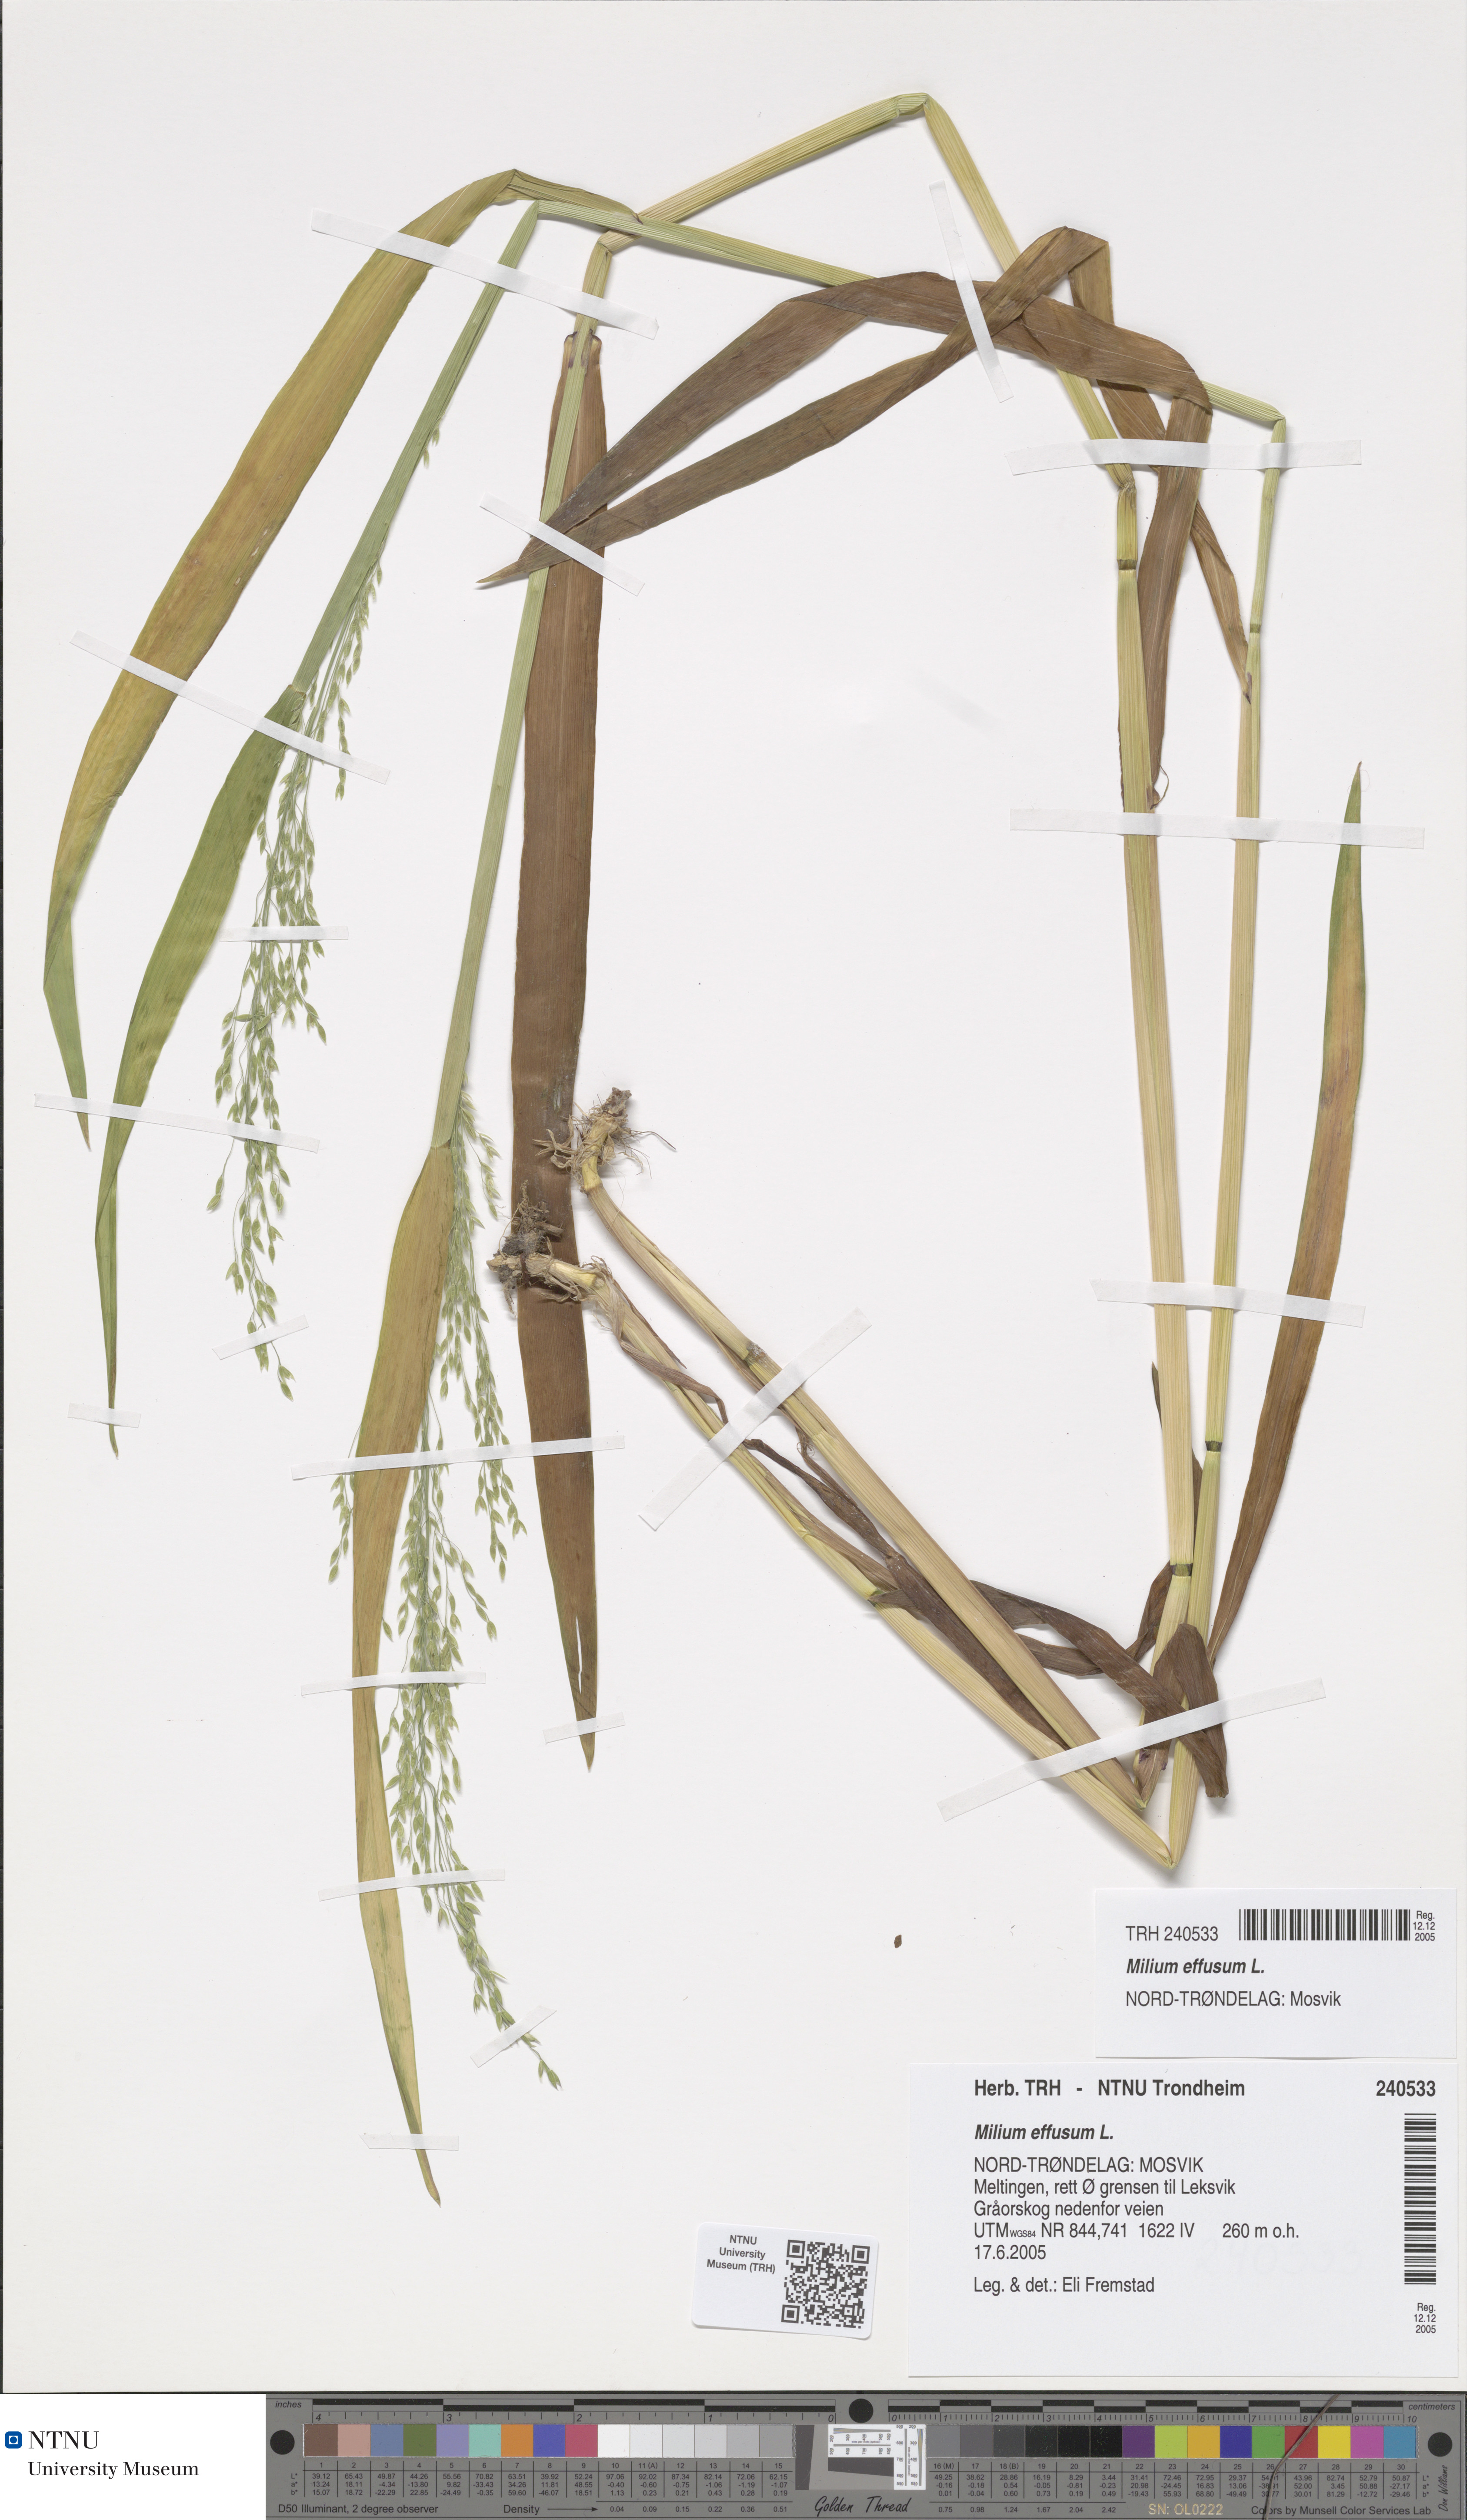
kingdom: Plantae
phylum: Tracheophyta
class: Liliopsida
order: Poales
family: Poaceae
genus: Milium
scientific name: Milium effusum
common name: Wood millet
